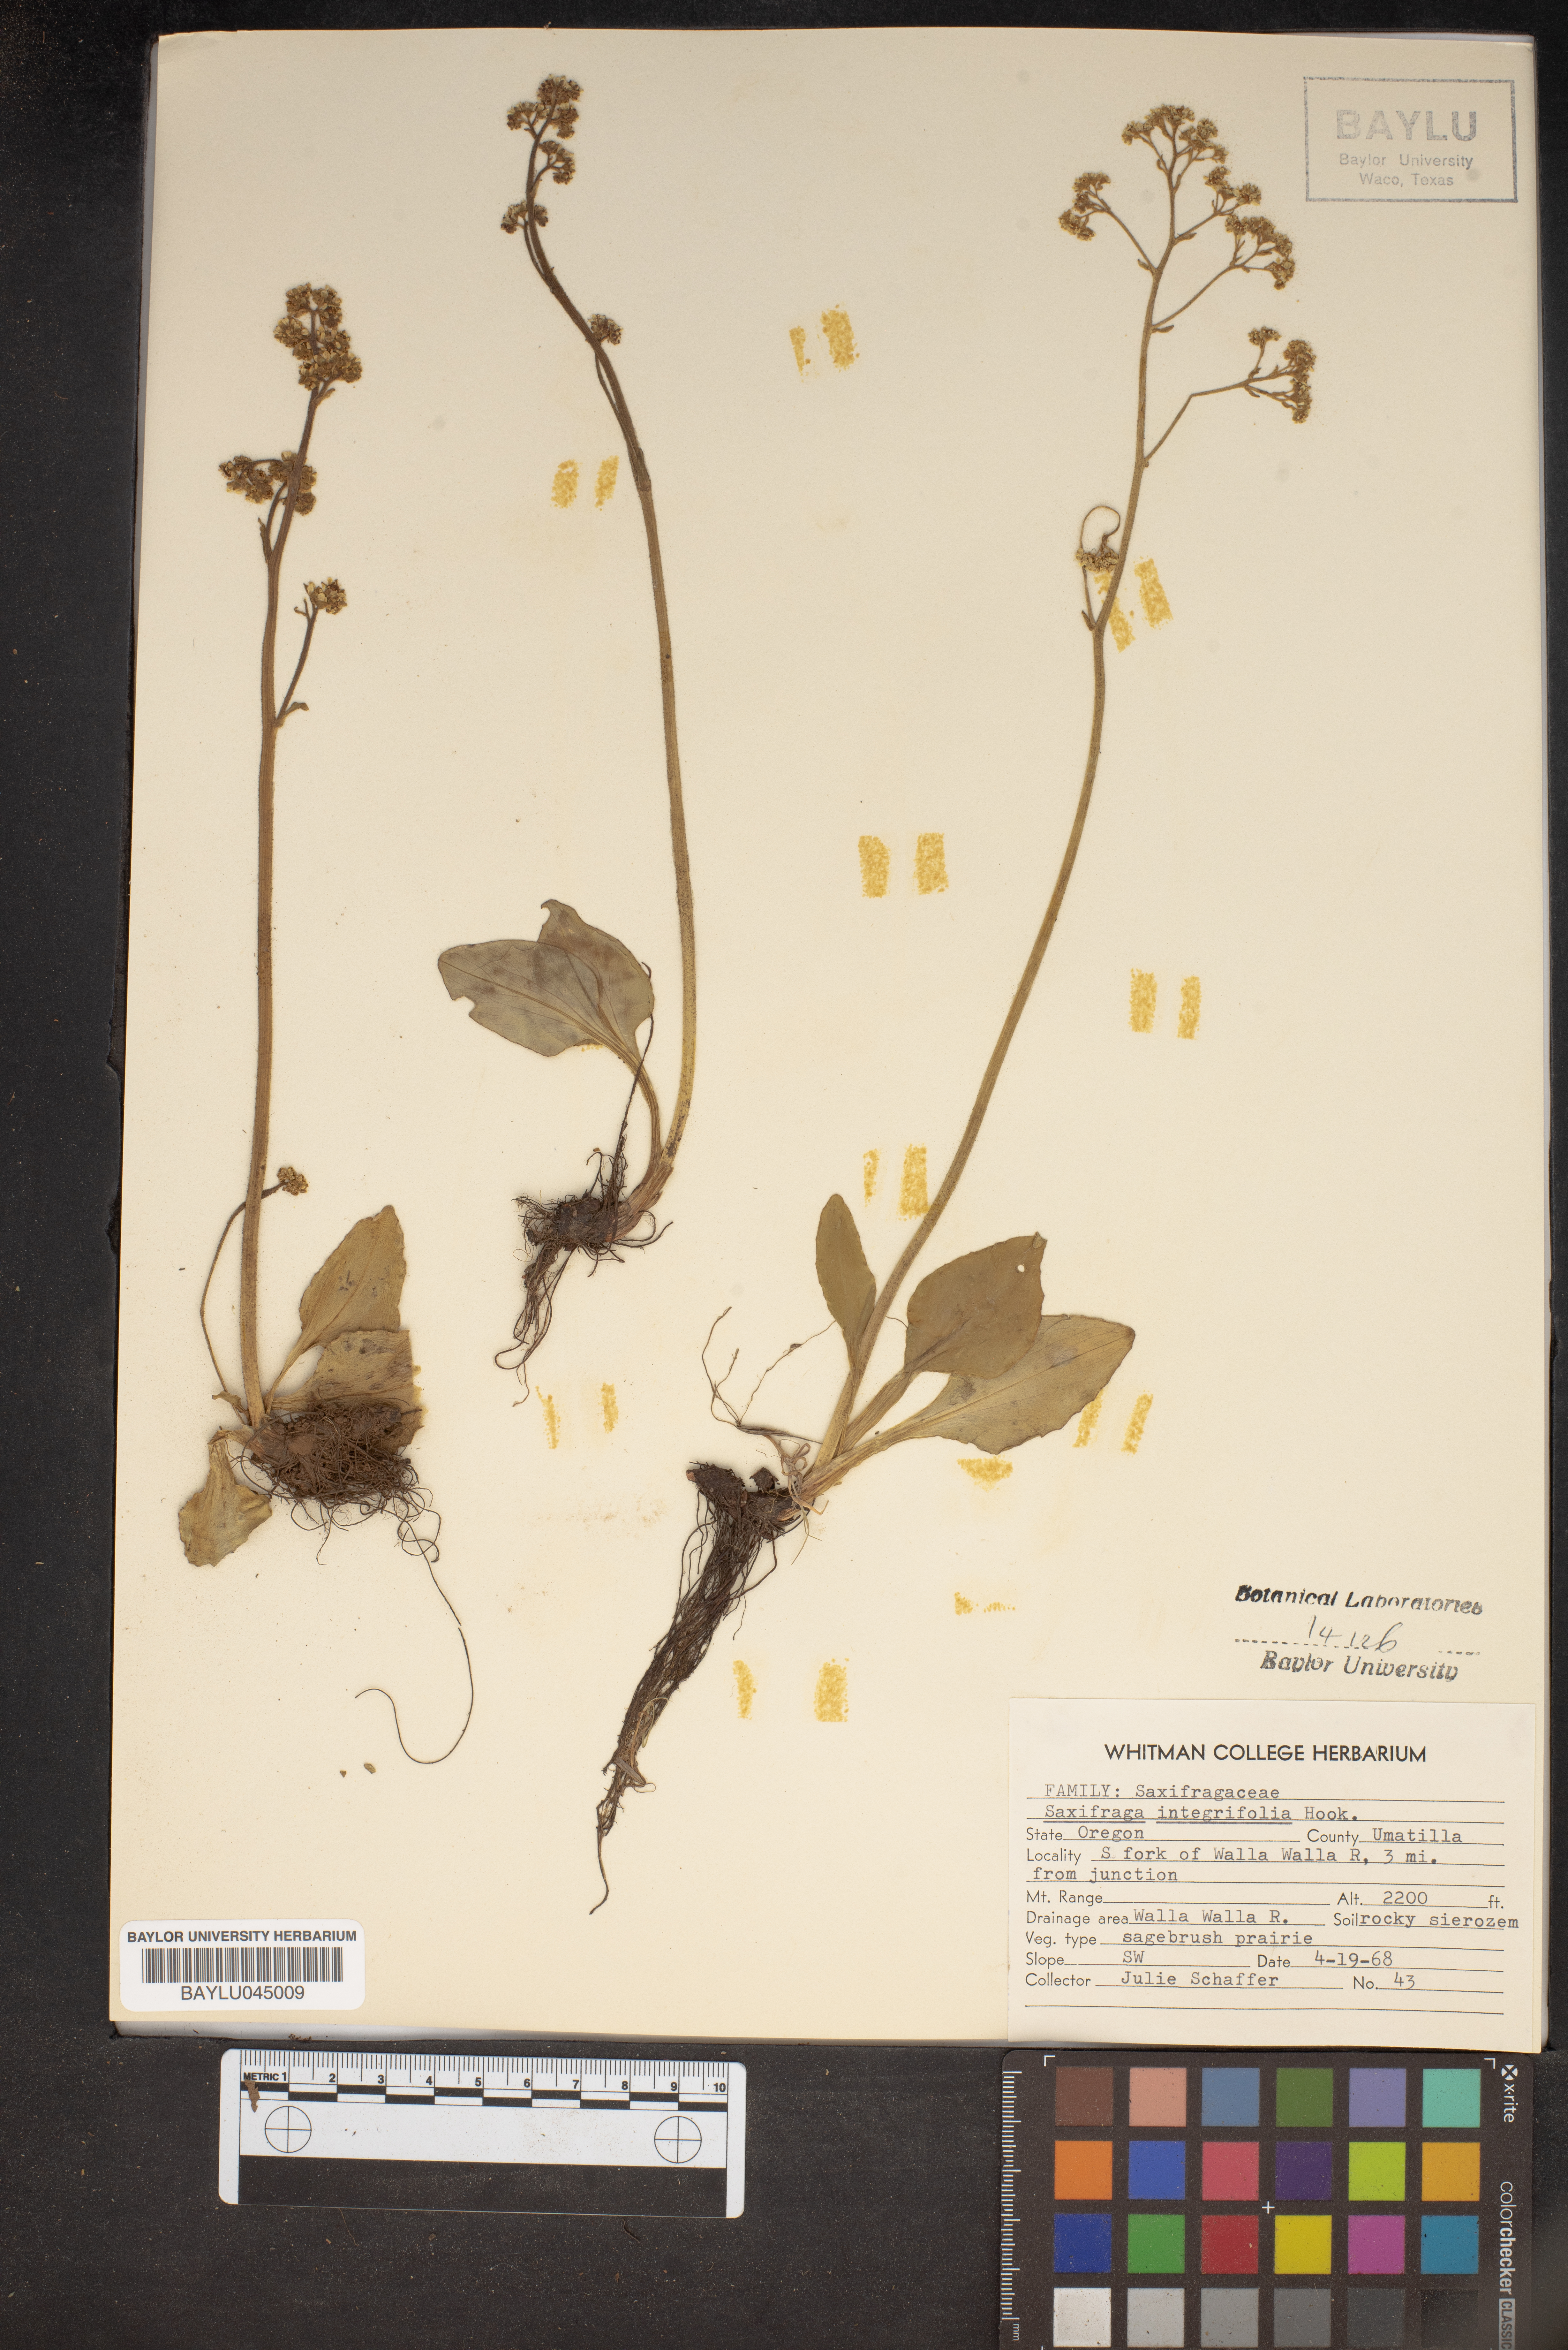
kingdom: Plantae
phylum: Tracheophyta
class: Magnoliopsida
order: Saxifragales
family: Saxifragaceae
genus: Micranthes
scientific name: Micranthes integrifolia
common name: Wholeleaf saxifrage
